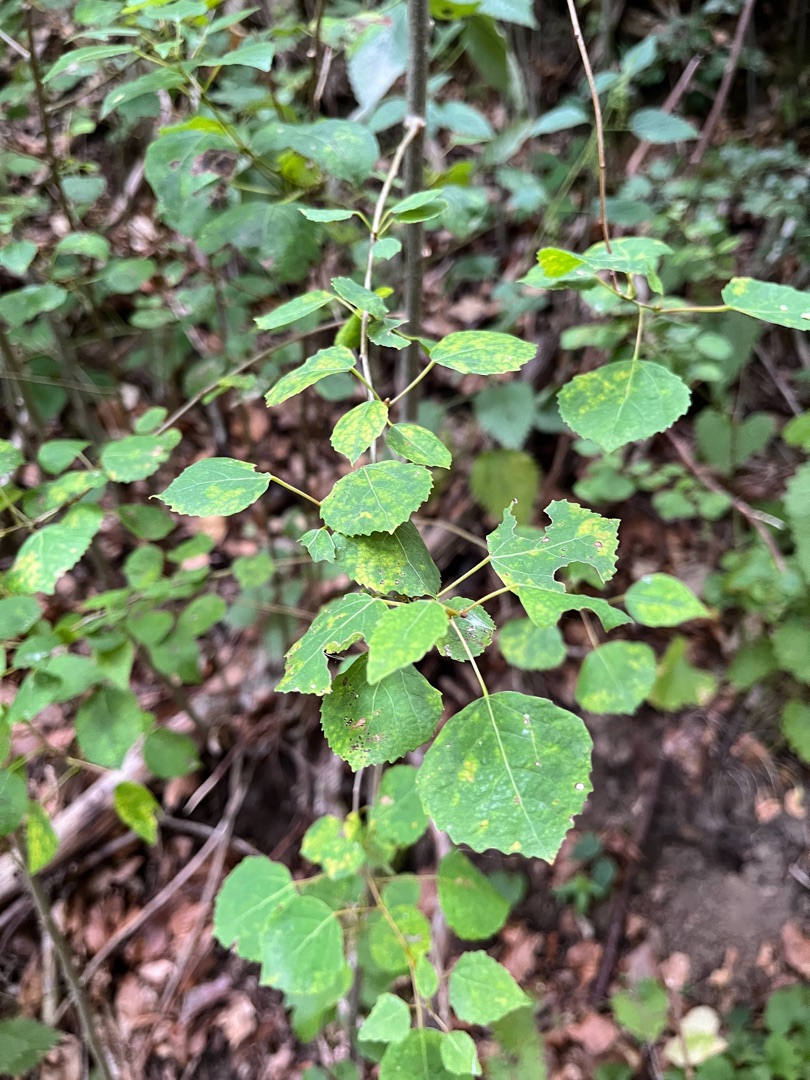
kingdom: Plantae
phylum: Tracheophyta
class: Magnoliopsida
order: Malpighiales
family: Salicaceae
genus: Populus
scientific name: Populus tremula
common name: Bævreasp
